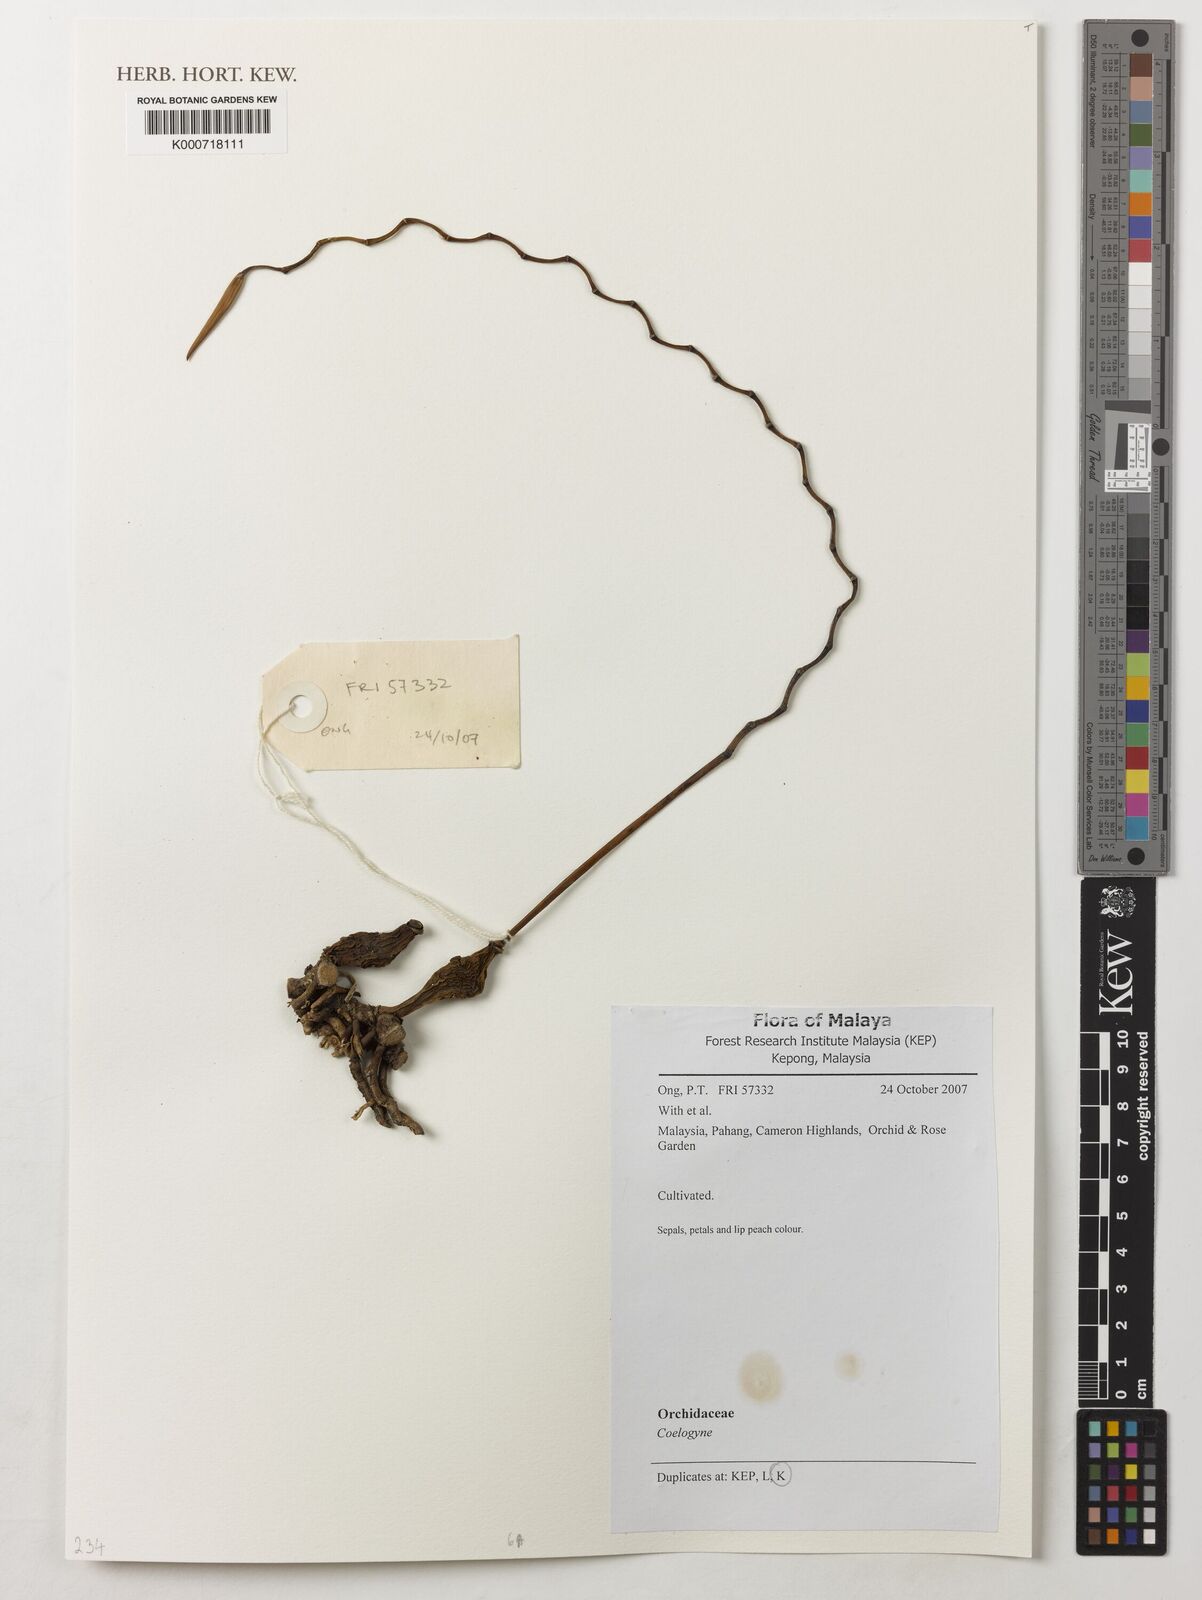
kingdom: Plantae
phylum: Tracheophyta
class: Liliopsida
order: Asparagales
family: Orchidaceae
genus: Coelogyne
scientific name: Coelogyne
